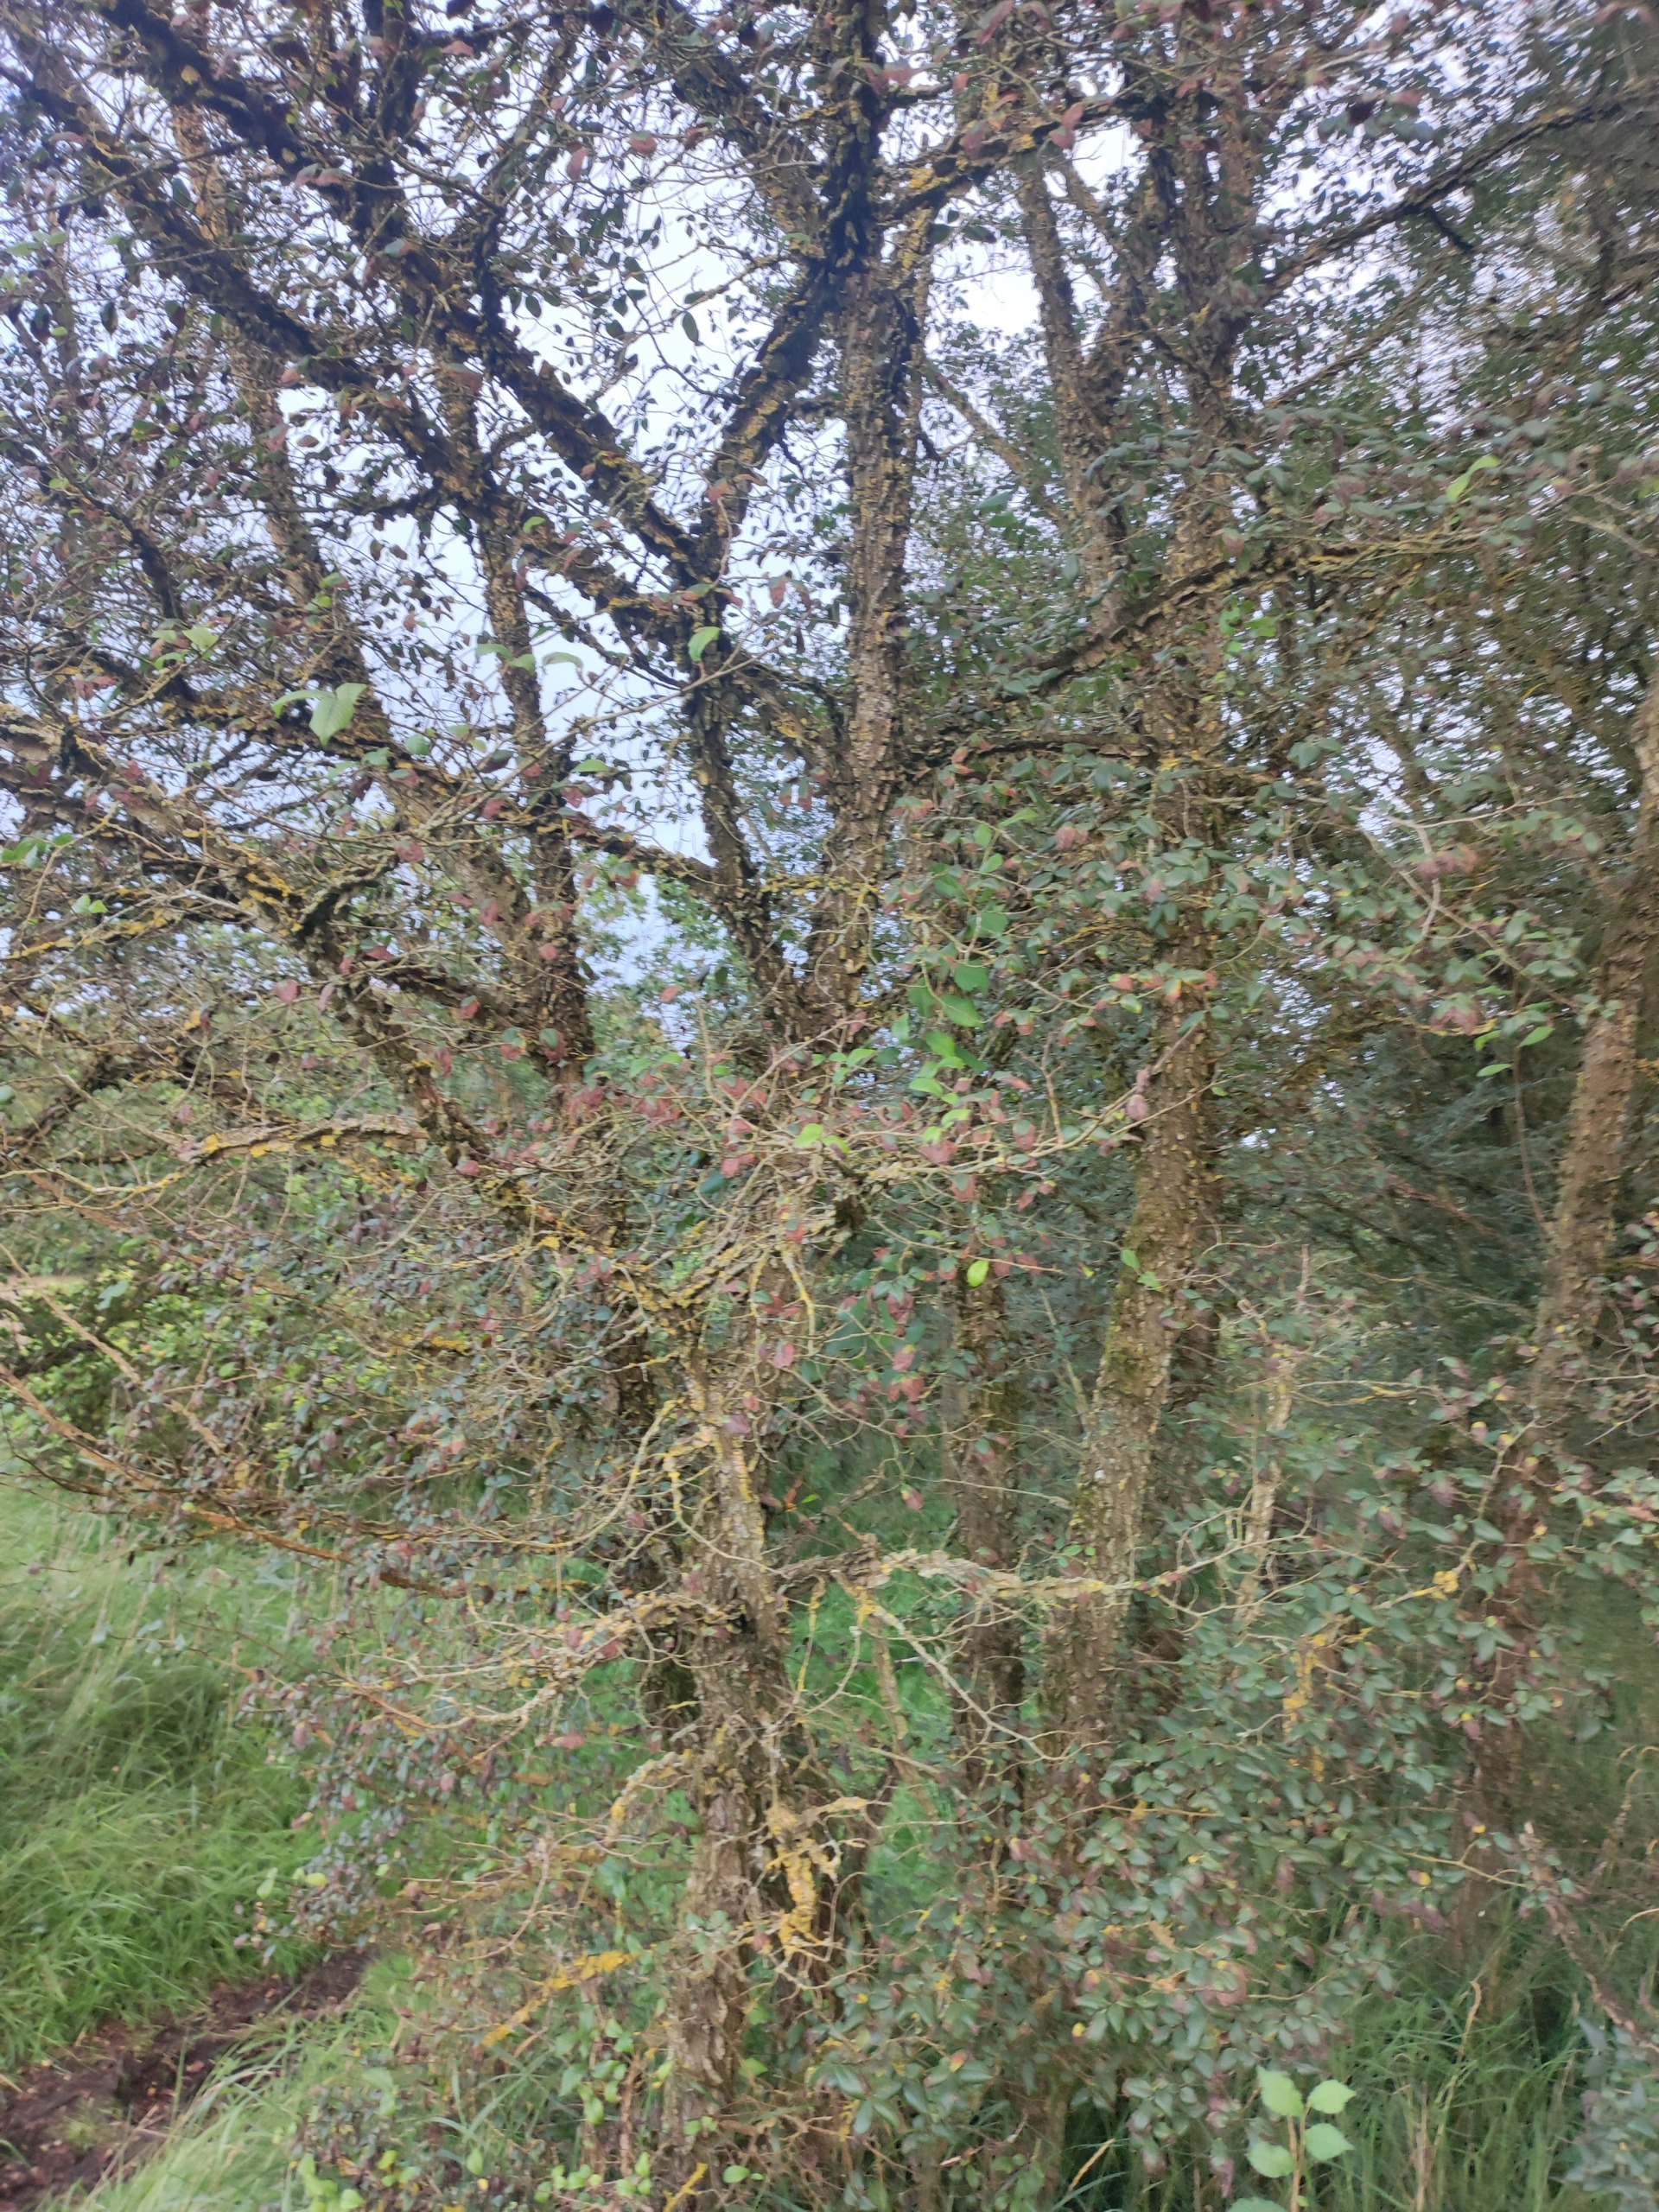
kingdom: Plantae
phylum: Tracheophyta
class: Magnoliopsida
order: Rosales
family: Ulmaceae
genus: Ulmus
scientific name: Ulmus minor
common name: Småbladet elm
